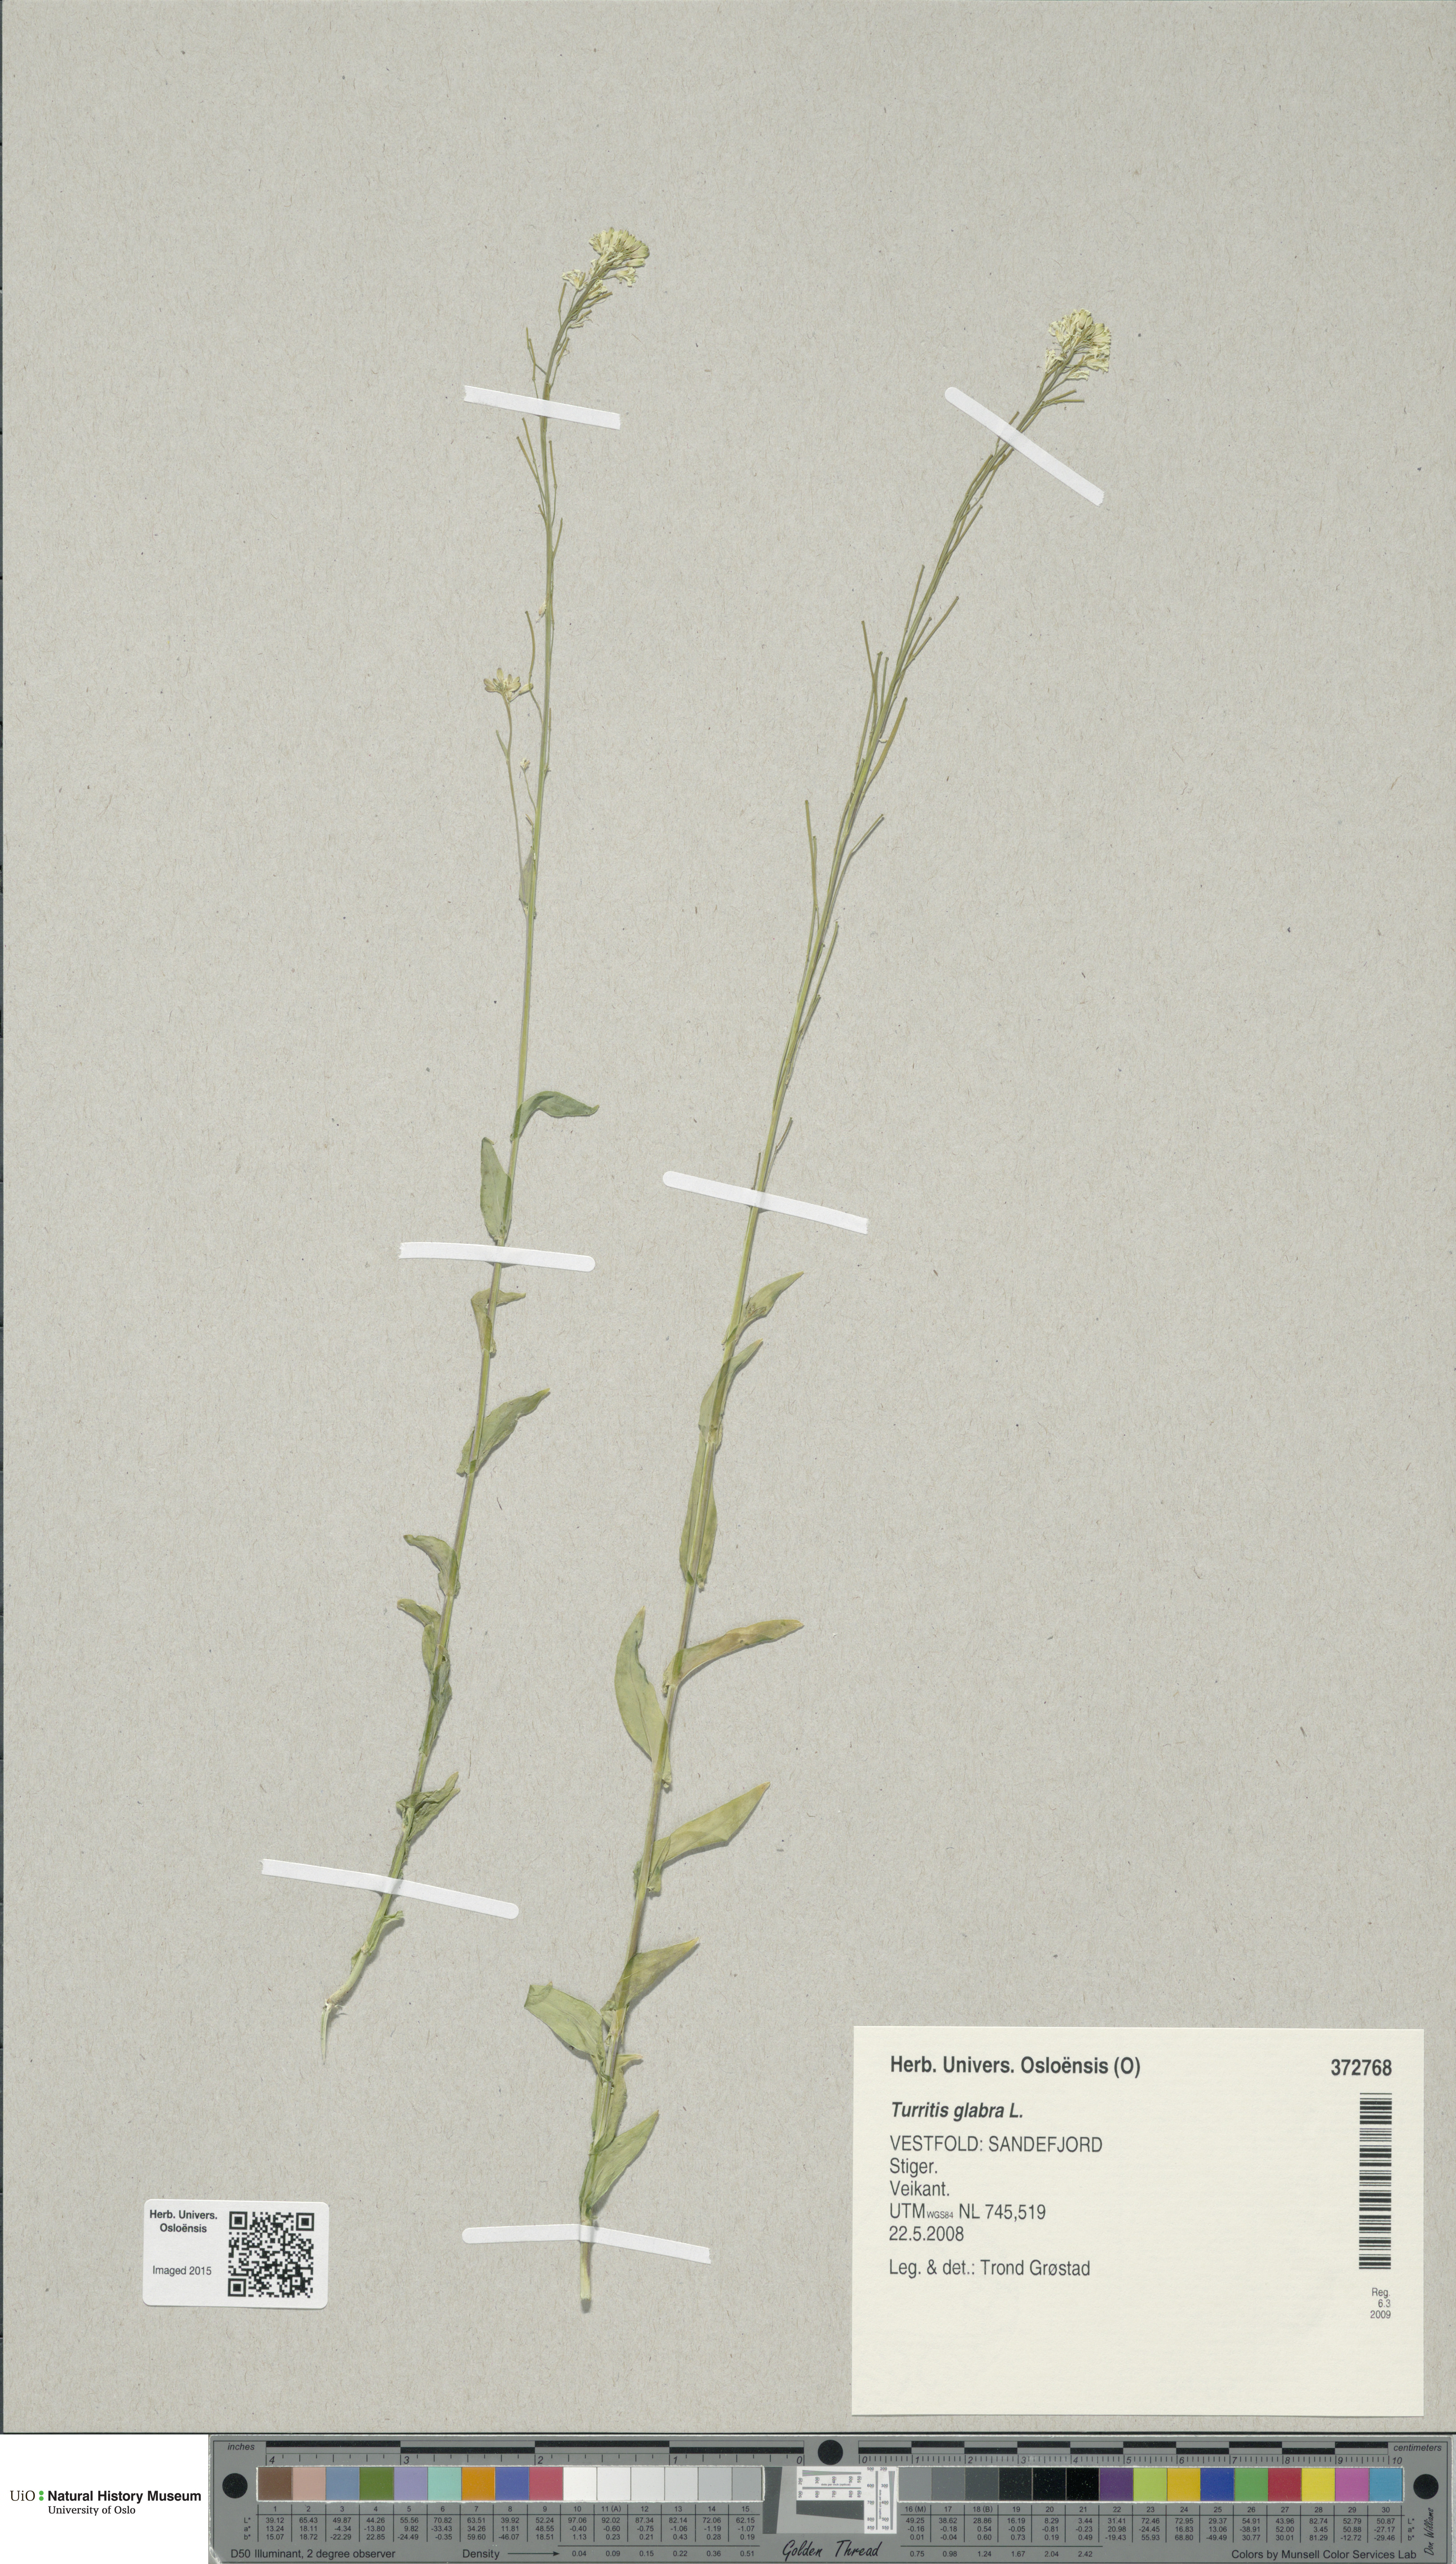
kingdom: Plantae
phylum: Tracheophyta
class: Magnoliopsida
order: Brassicales
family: Brassicaceae
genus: Turritis
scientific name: Turritis glabra
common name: Tower rockcress
